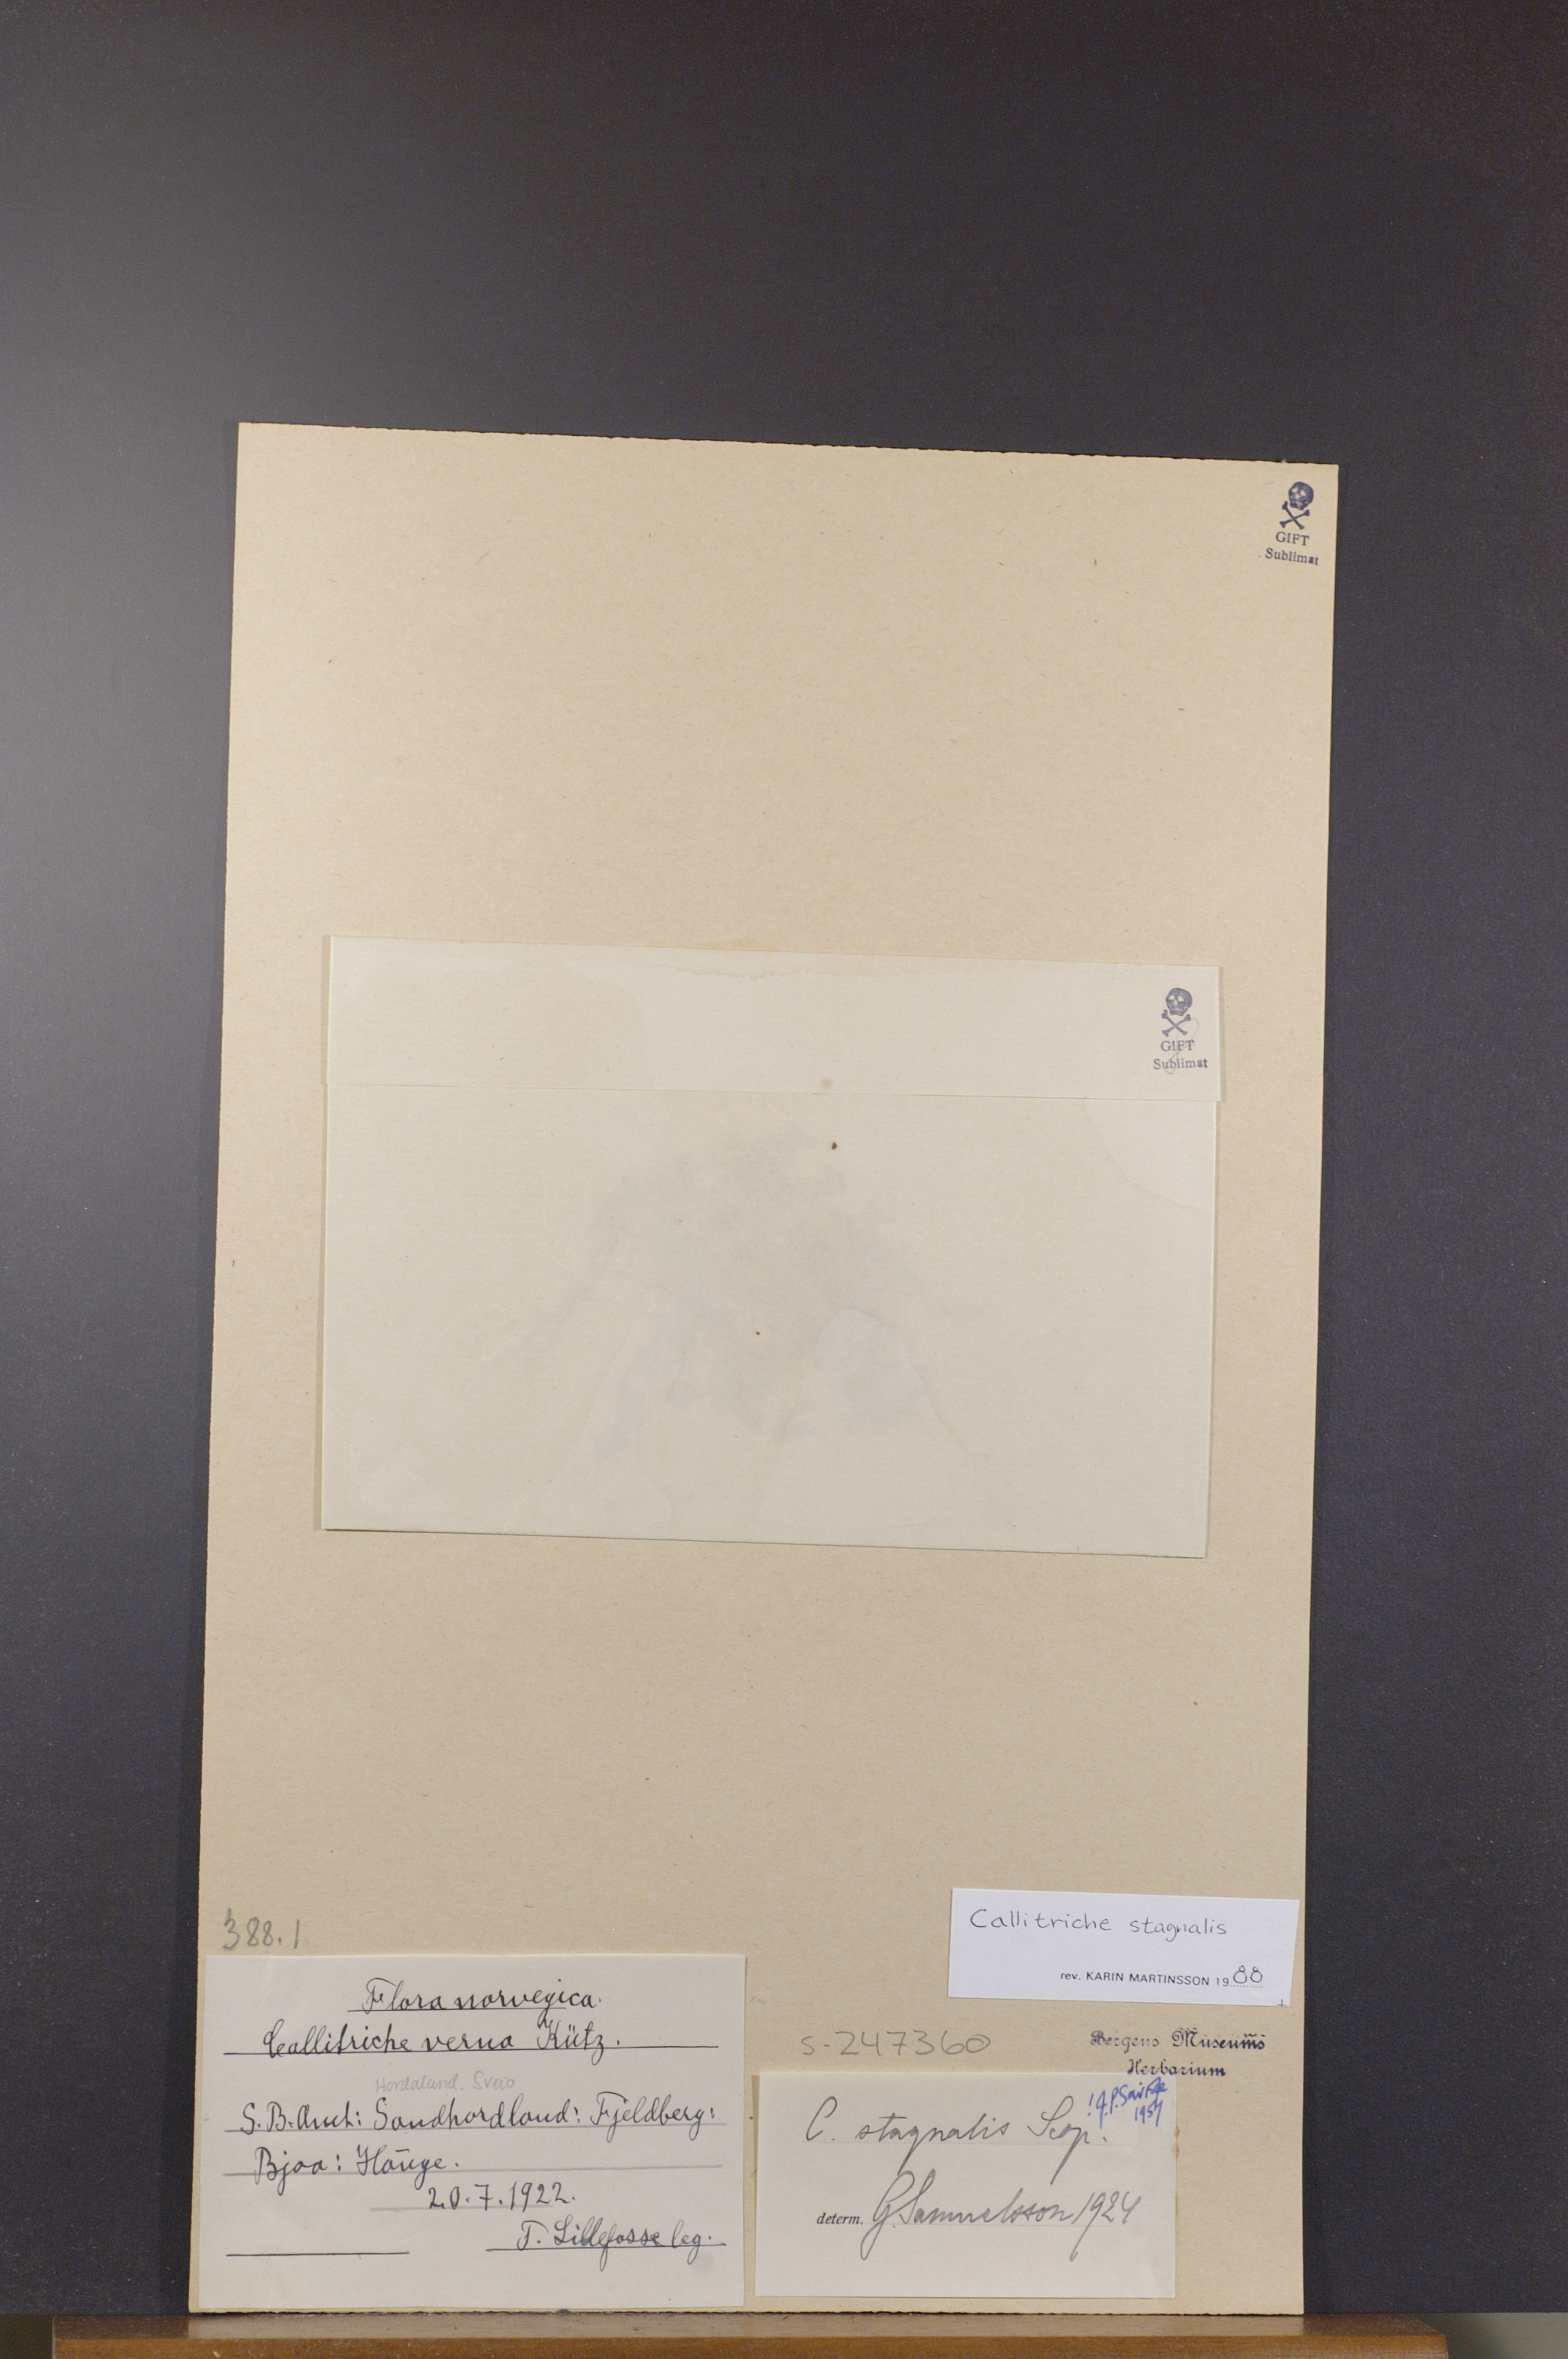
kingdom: Plantae
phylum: Tracheophyta
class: Magnoliopsida
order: Lamiales
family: Plantaginaceae
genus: Callitriche
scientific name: Callitriche stagnalis
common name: Common water-starwort
